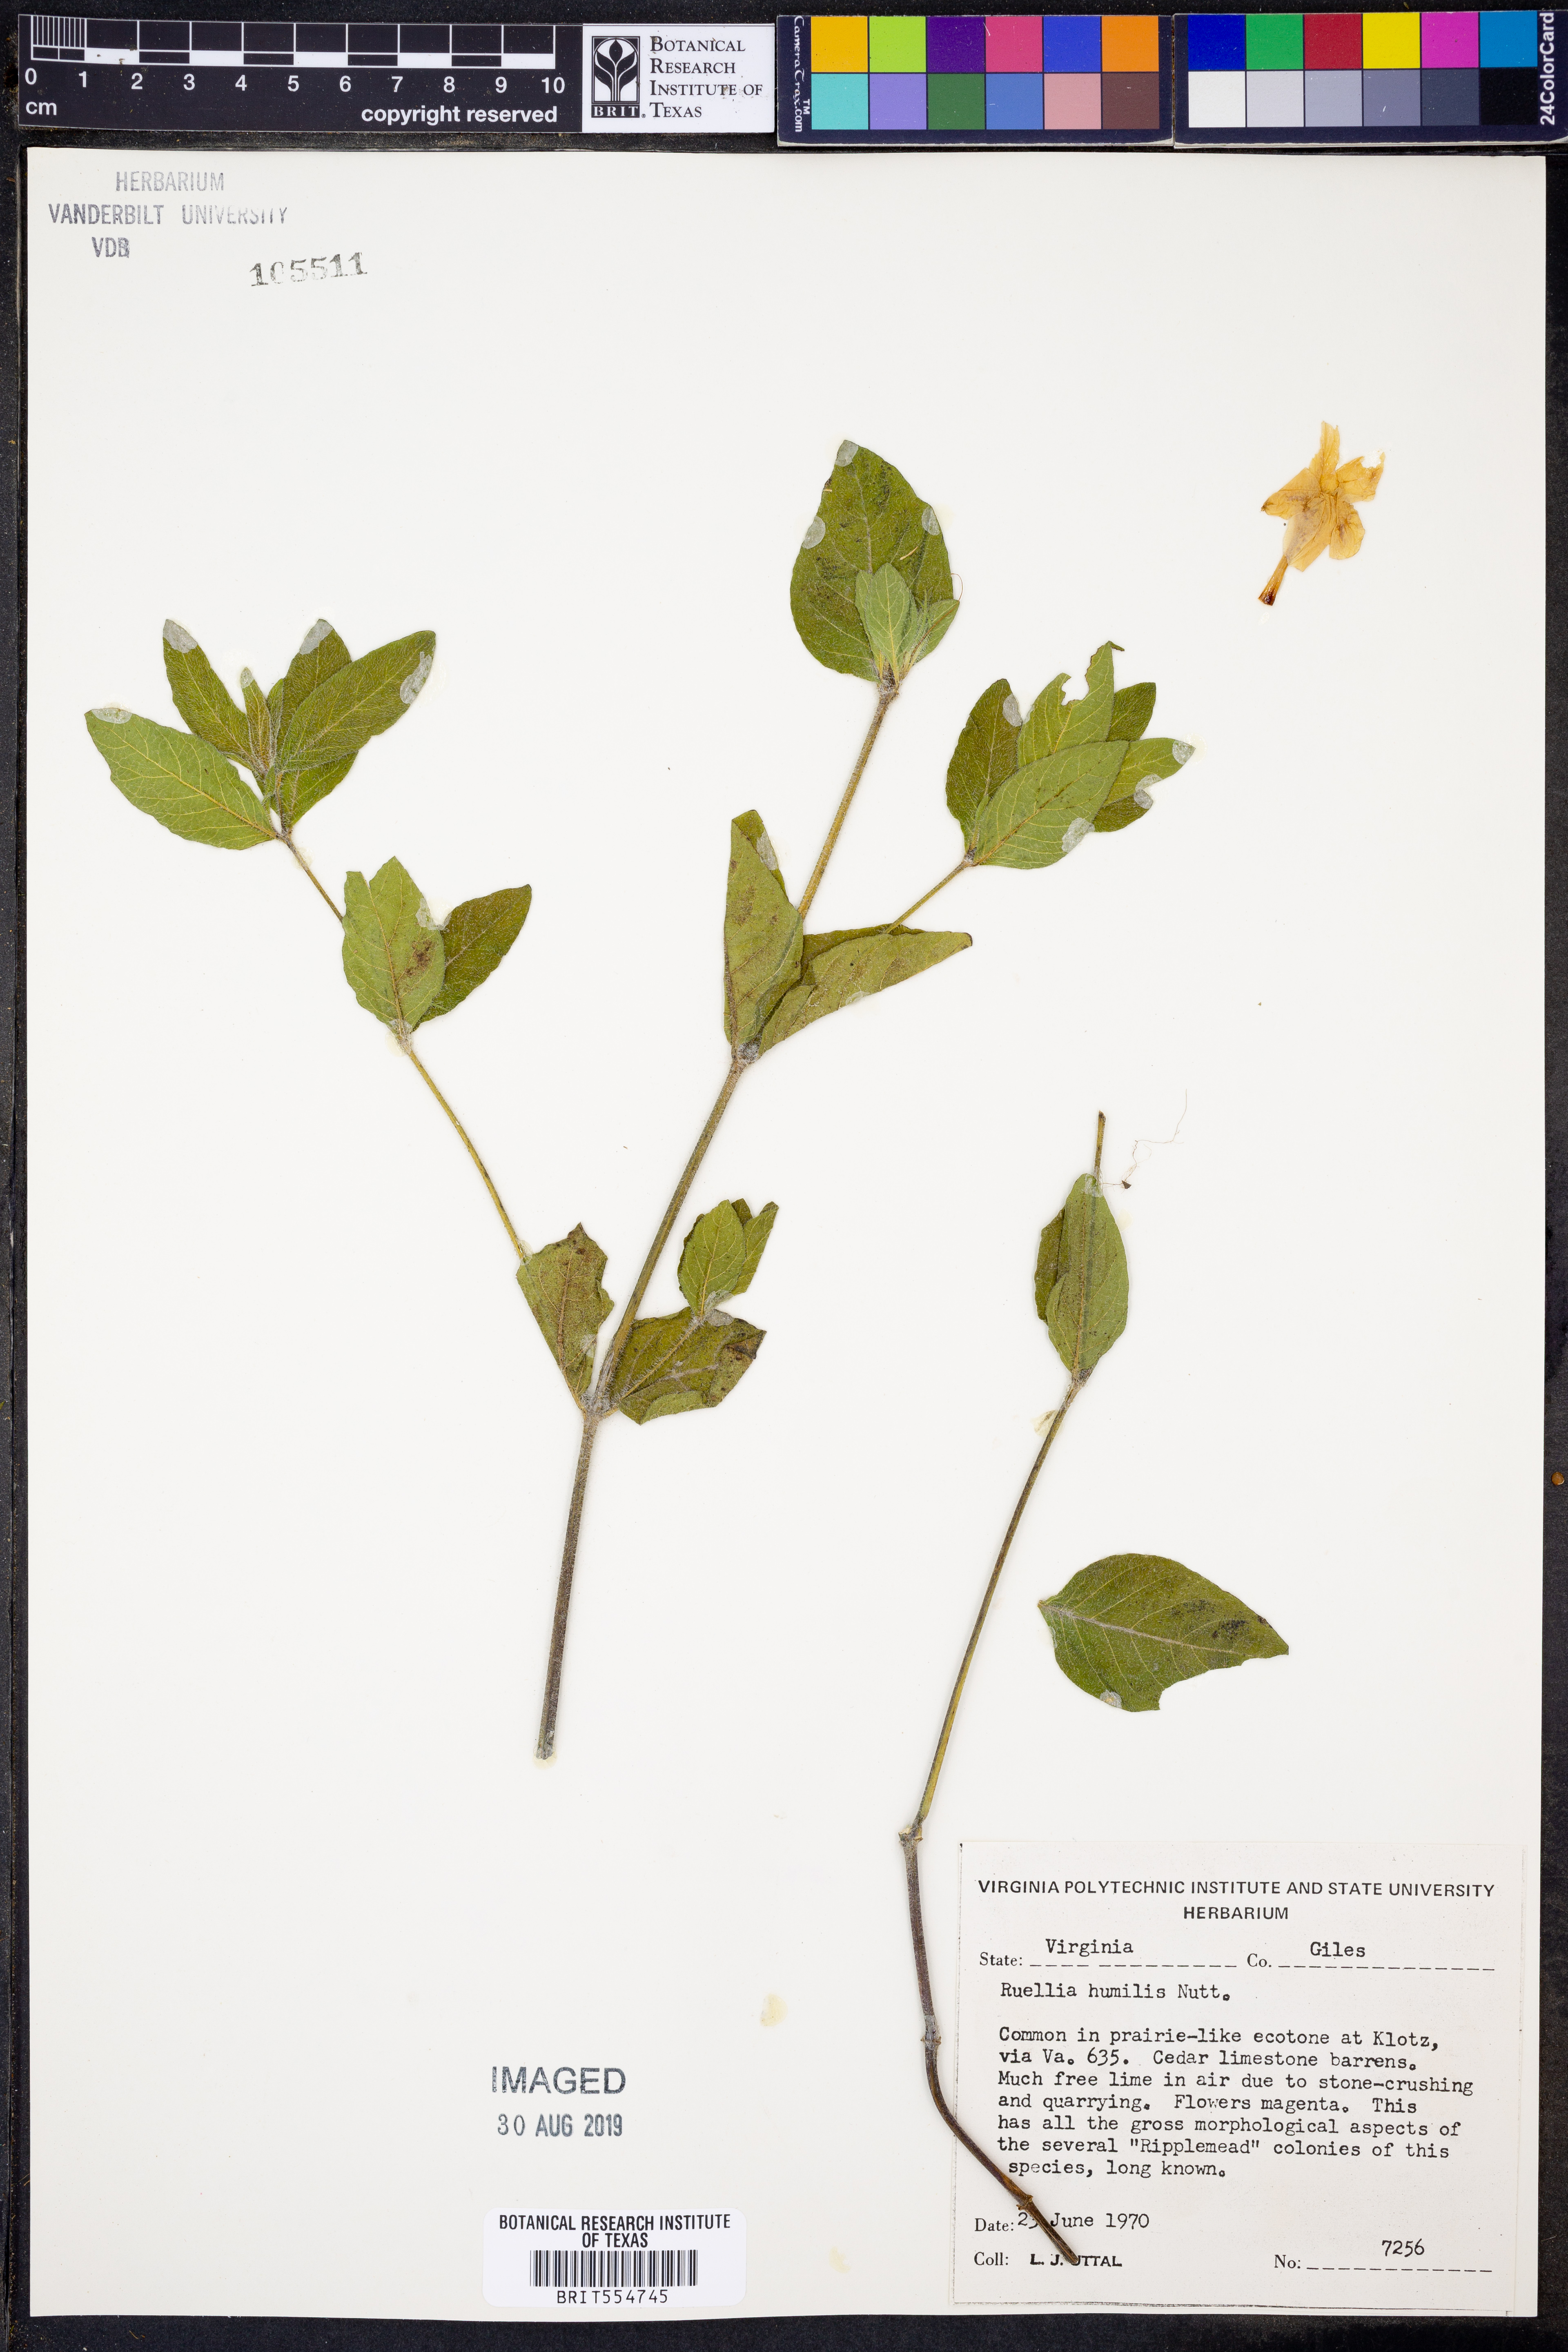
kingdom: Plantae
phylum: Tracheophyta
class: Magnoliopsida
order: Lamiales
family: Acanthaceae
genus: Ruellia
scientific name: Ruellia humilis
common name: Fringe-leaf ruellia
